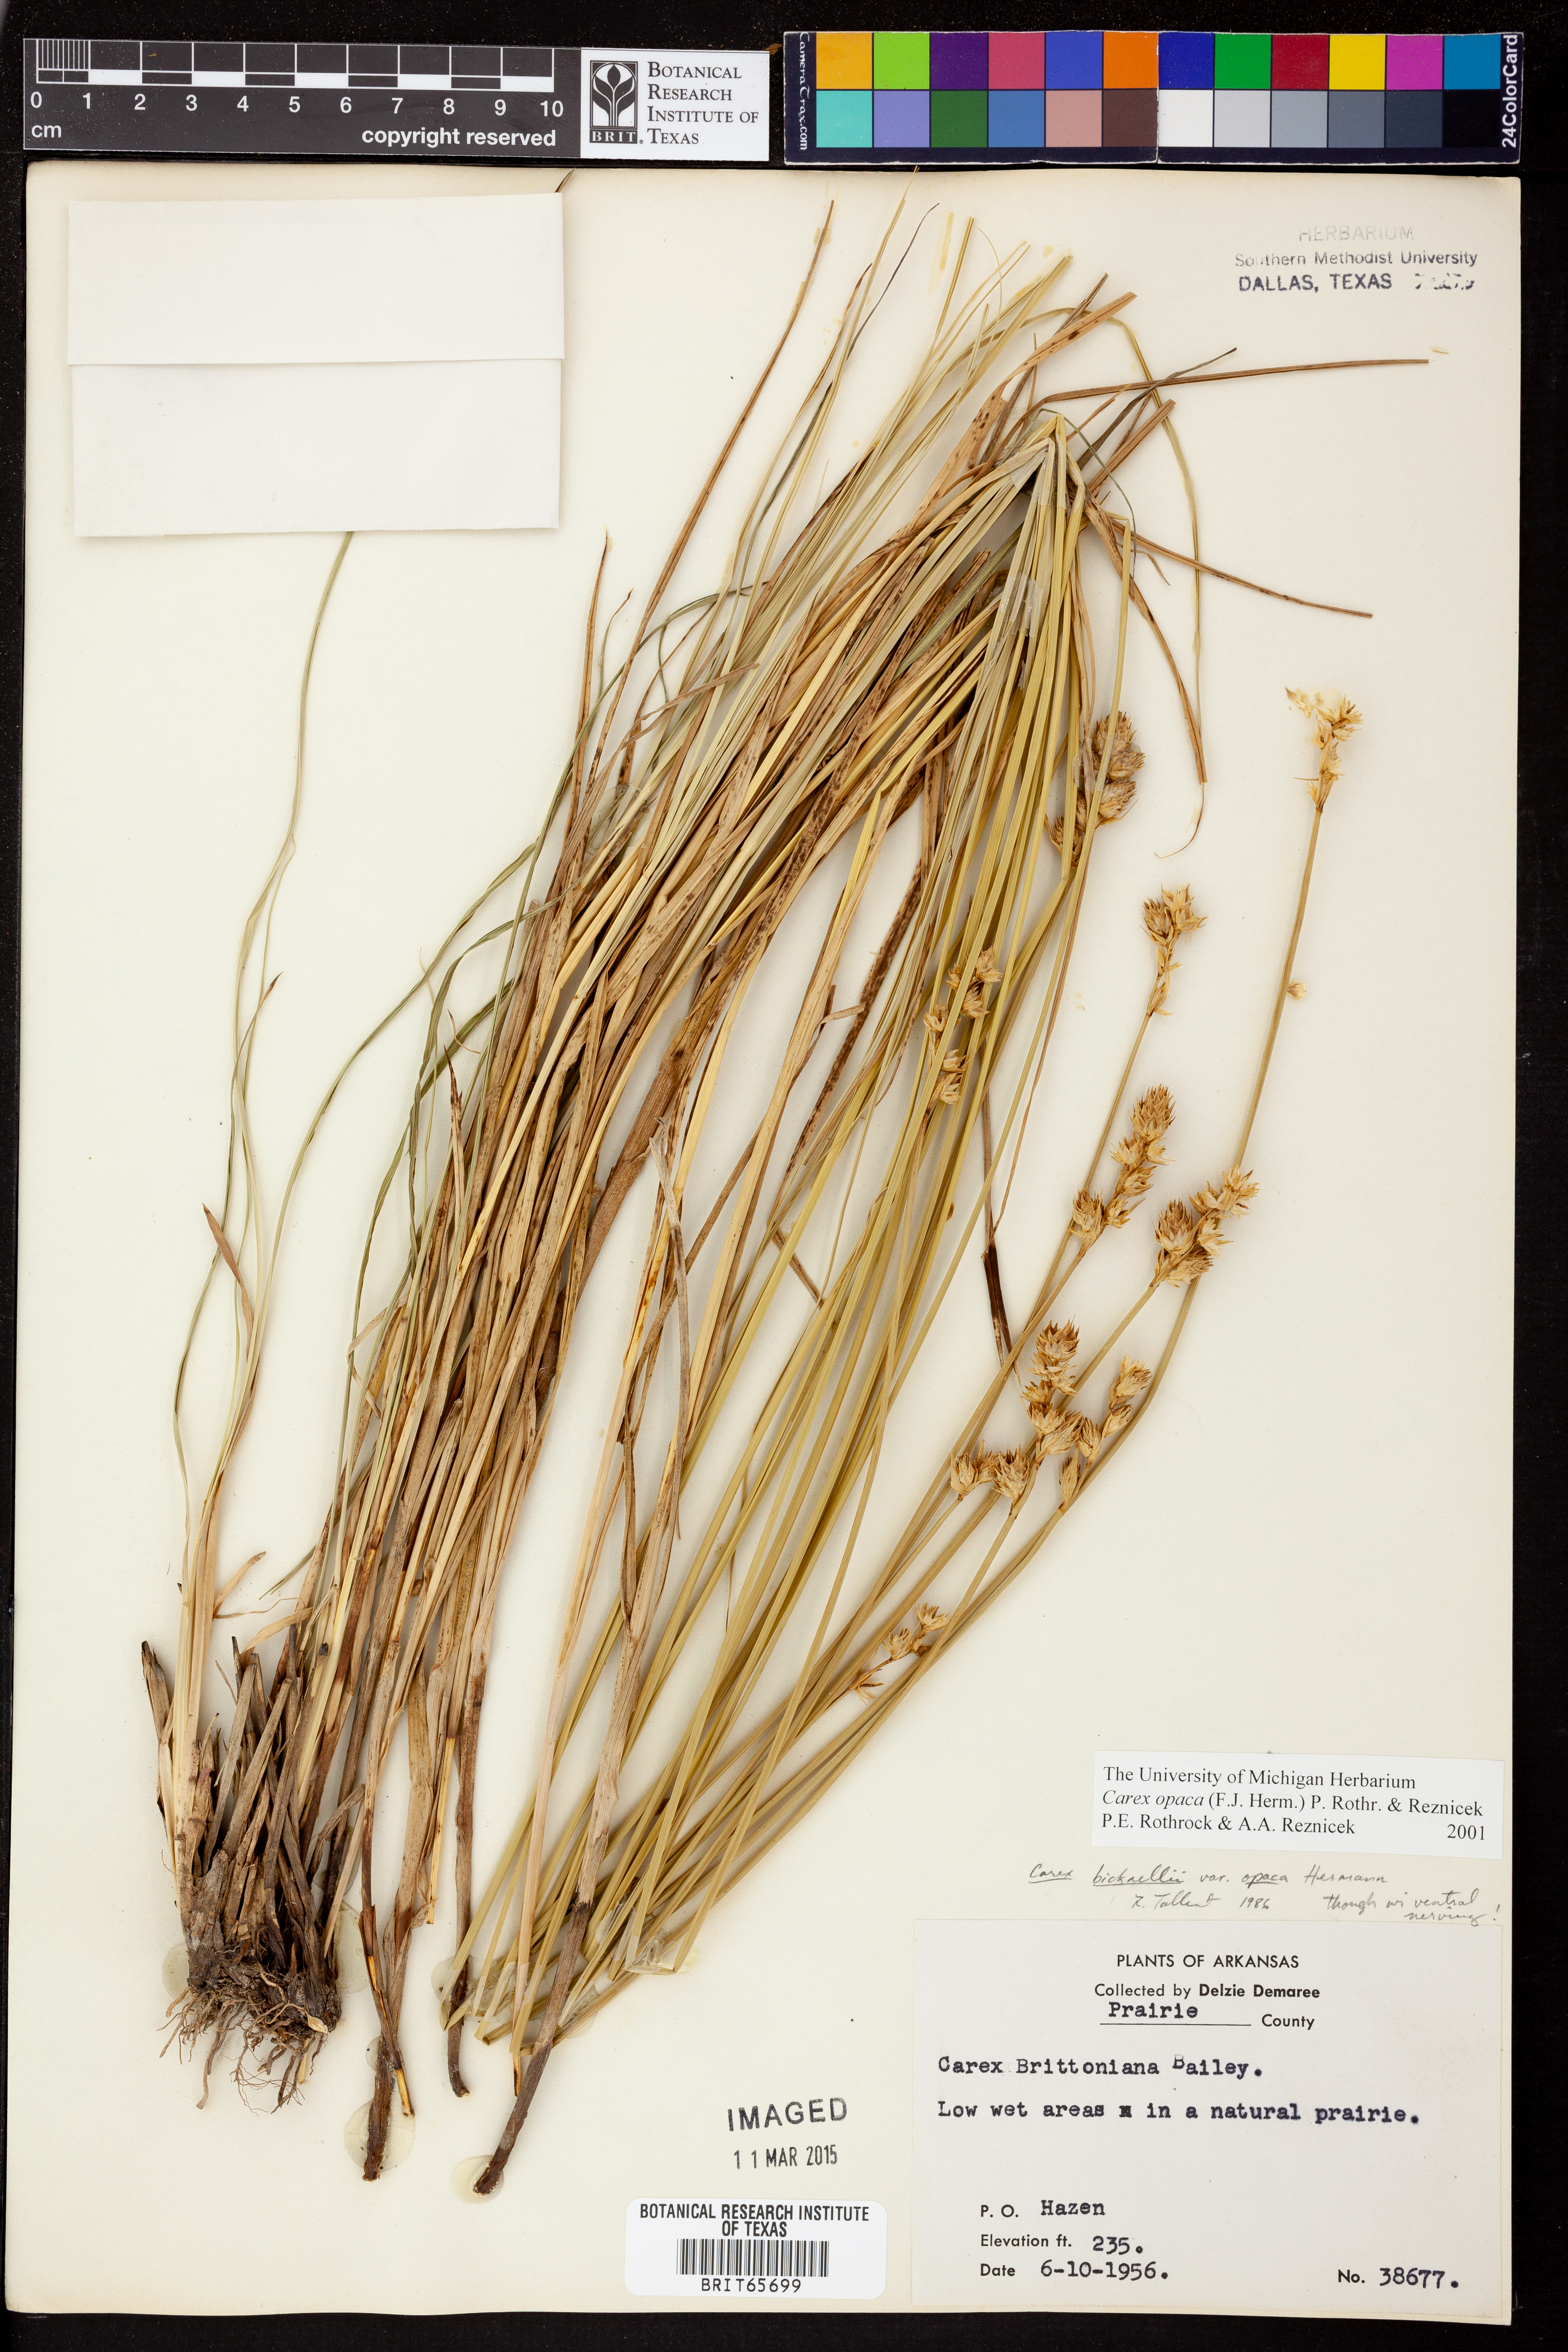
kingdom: Plantae
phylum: Tracheophyta
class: Liliopsida
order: Poales
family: Cyperaceae
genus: Carex
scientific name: Carex opaca
